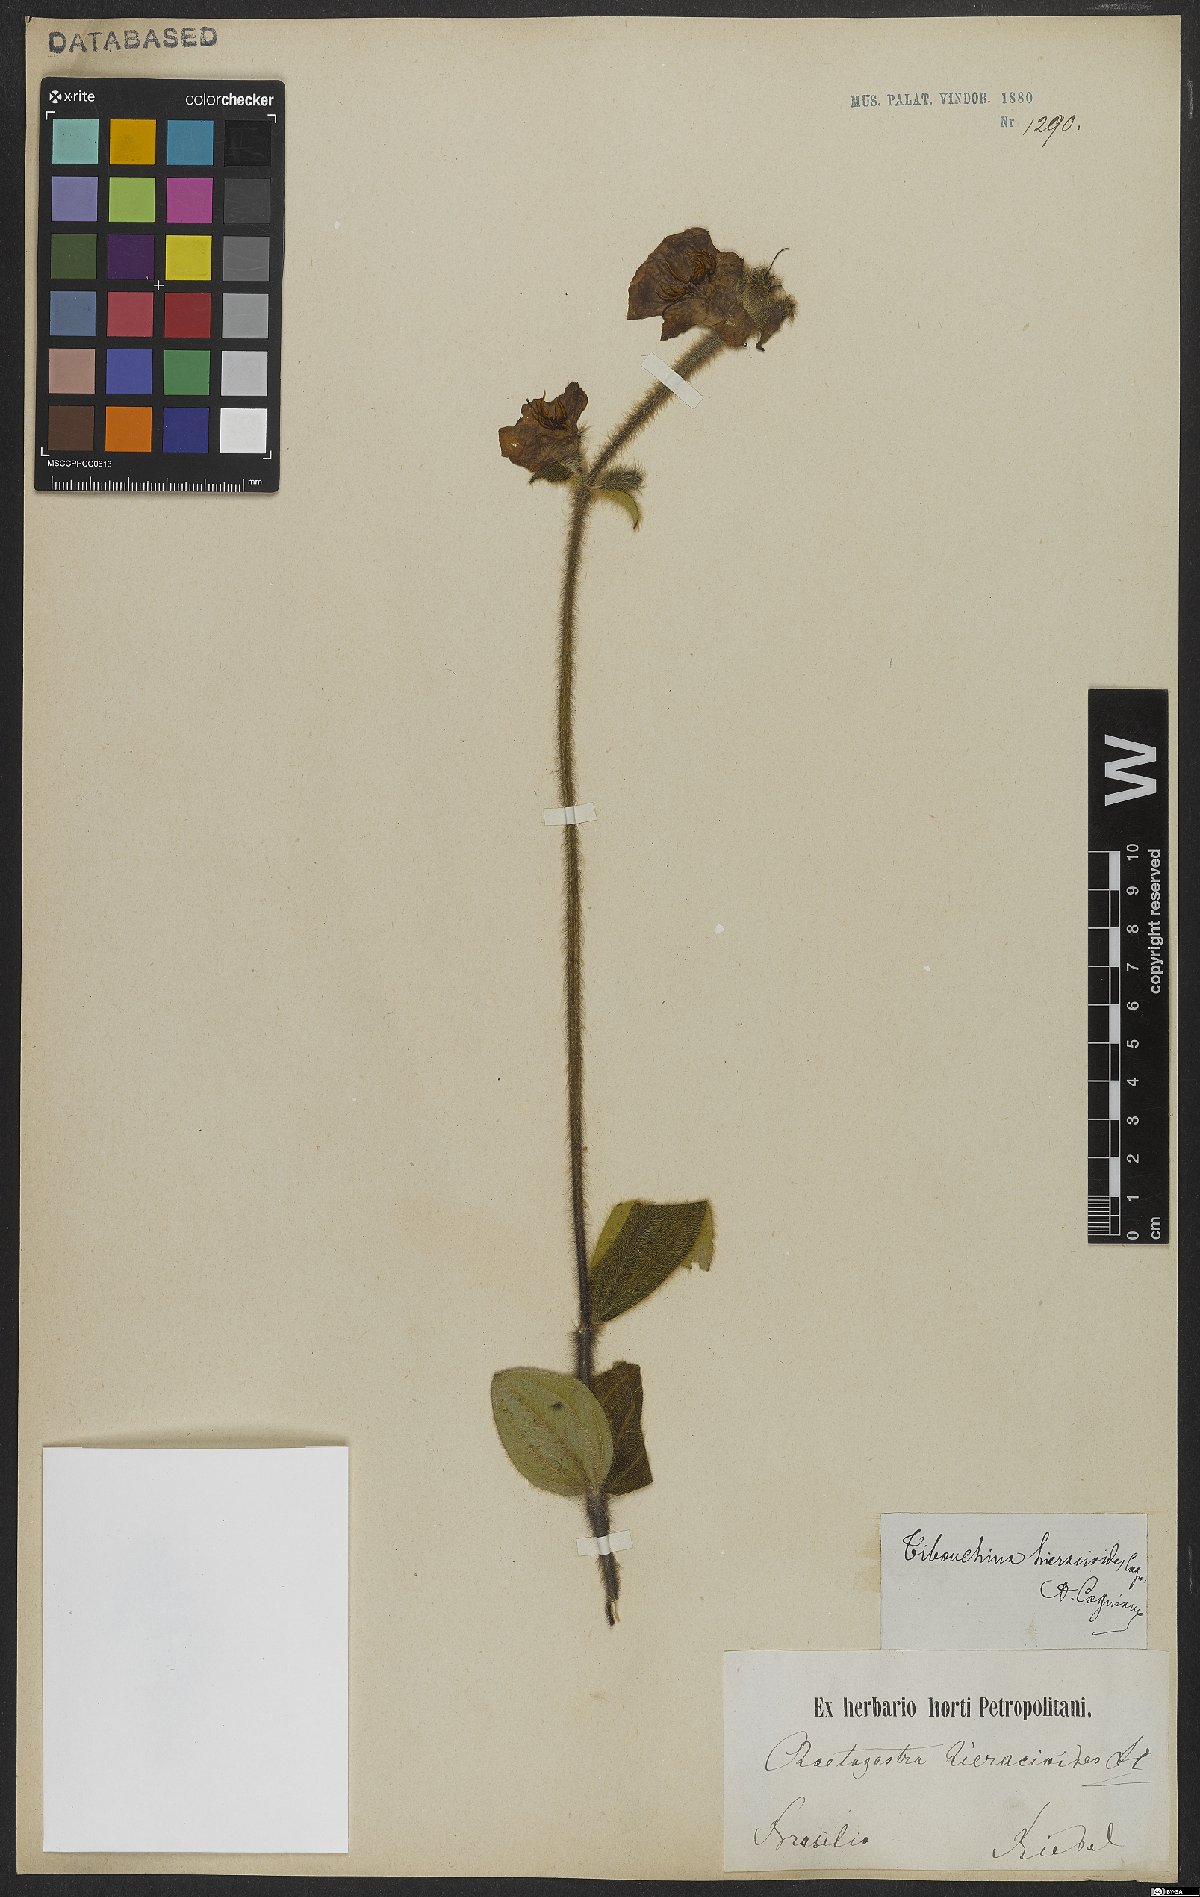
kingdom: Plantae
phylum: Tracheophyta
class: Magnoliopsida
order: Myrtales
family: Melastomataceae
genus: Chaetogastra
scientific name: Chaetogastra hieracioides
